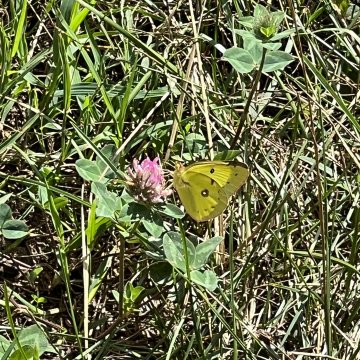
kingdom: Animalia
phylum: Arthropoda
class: Insecta
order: Lepidoptera
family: Pieridae
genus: Colias
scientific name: Colias philodice
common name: Clouded Sulphur
